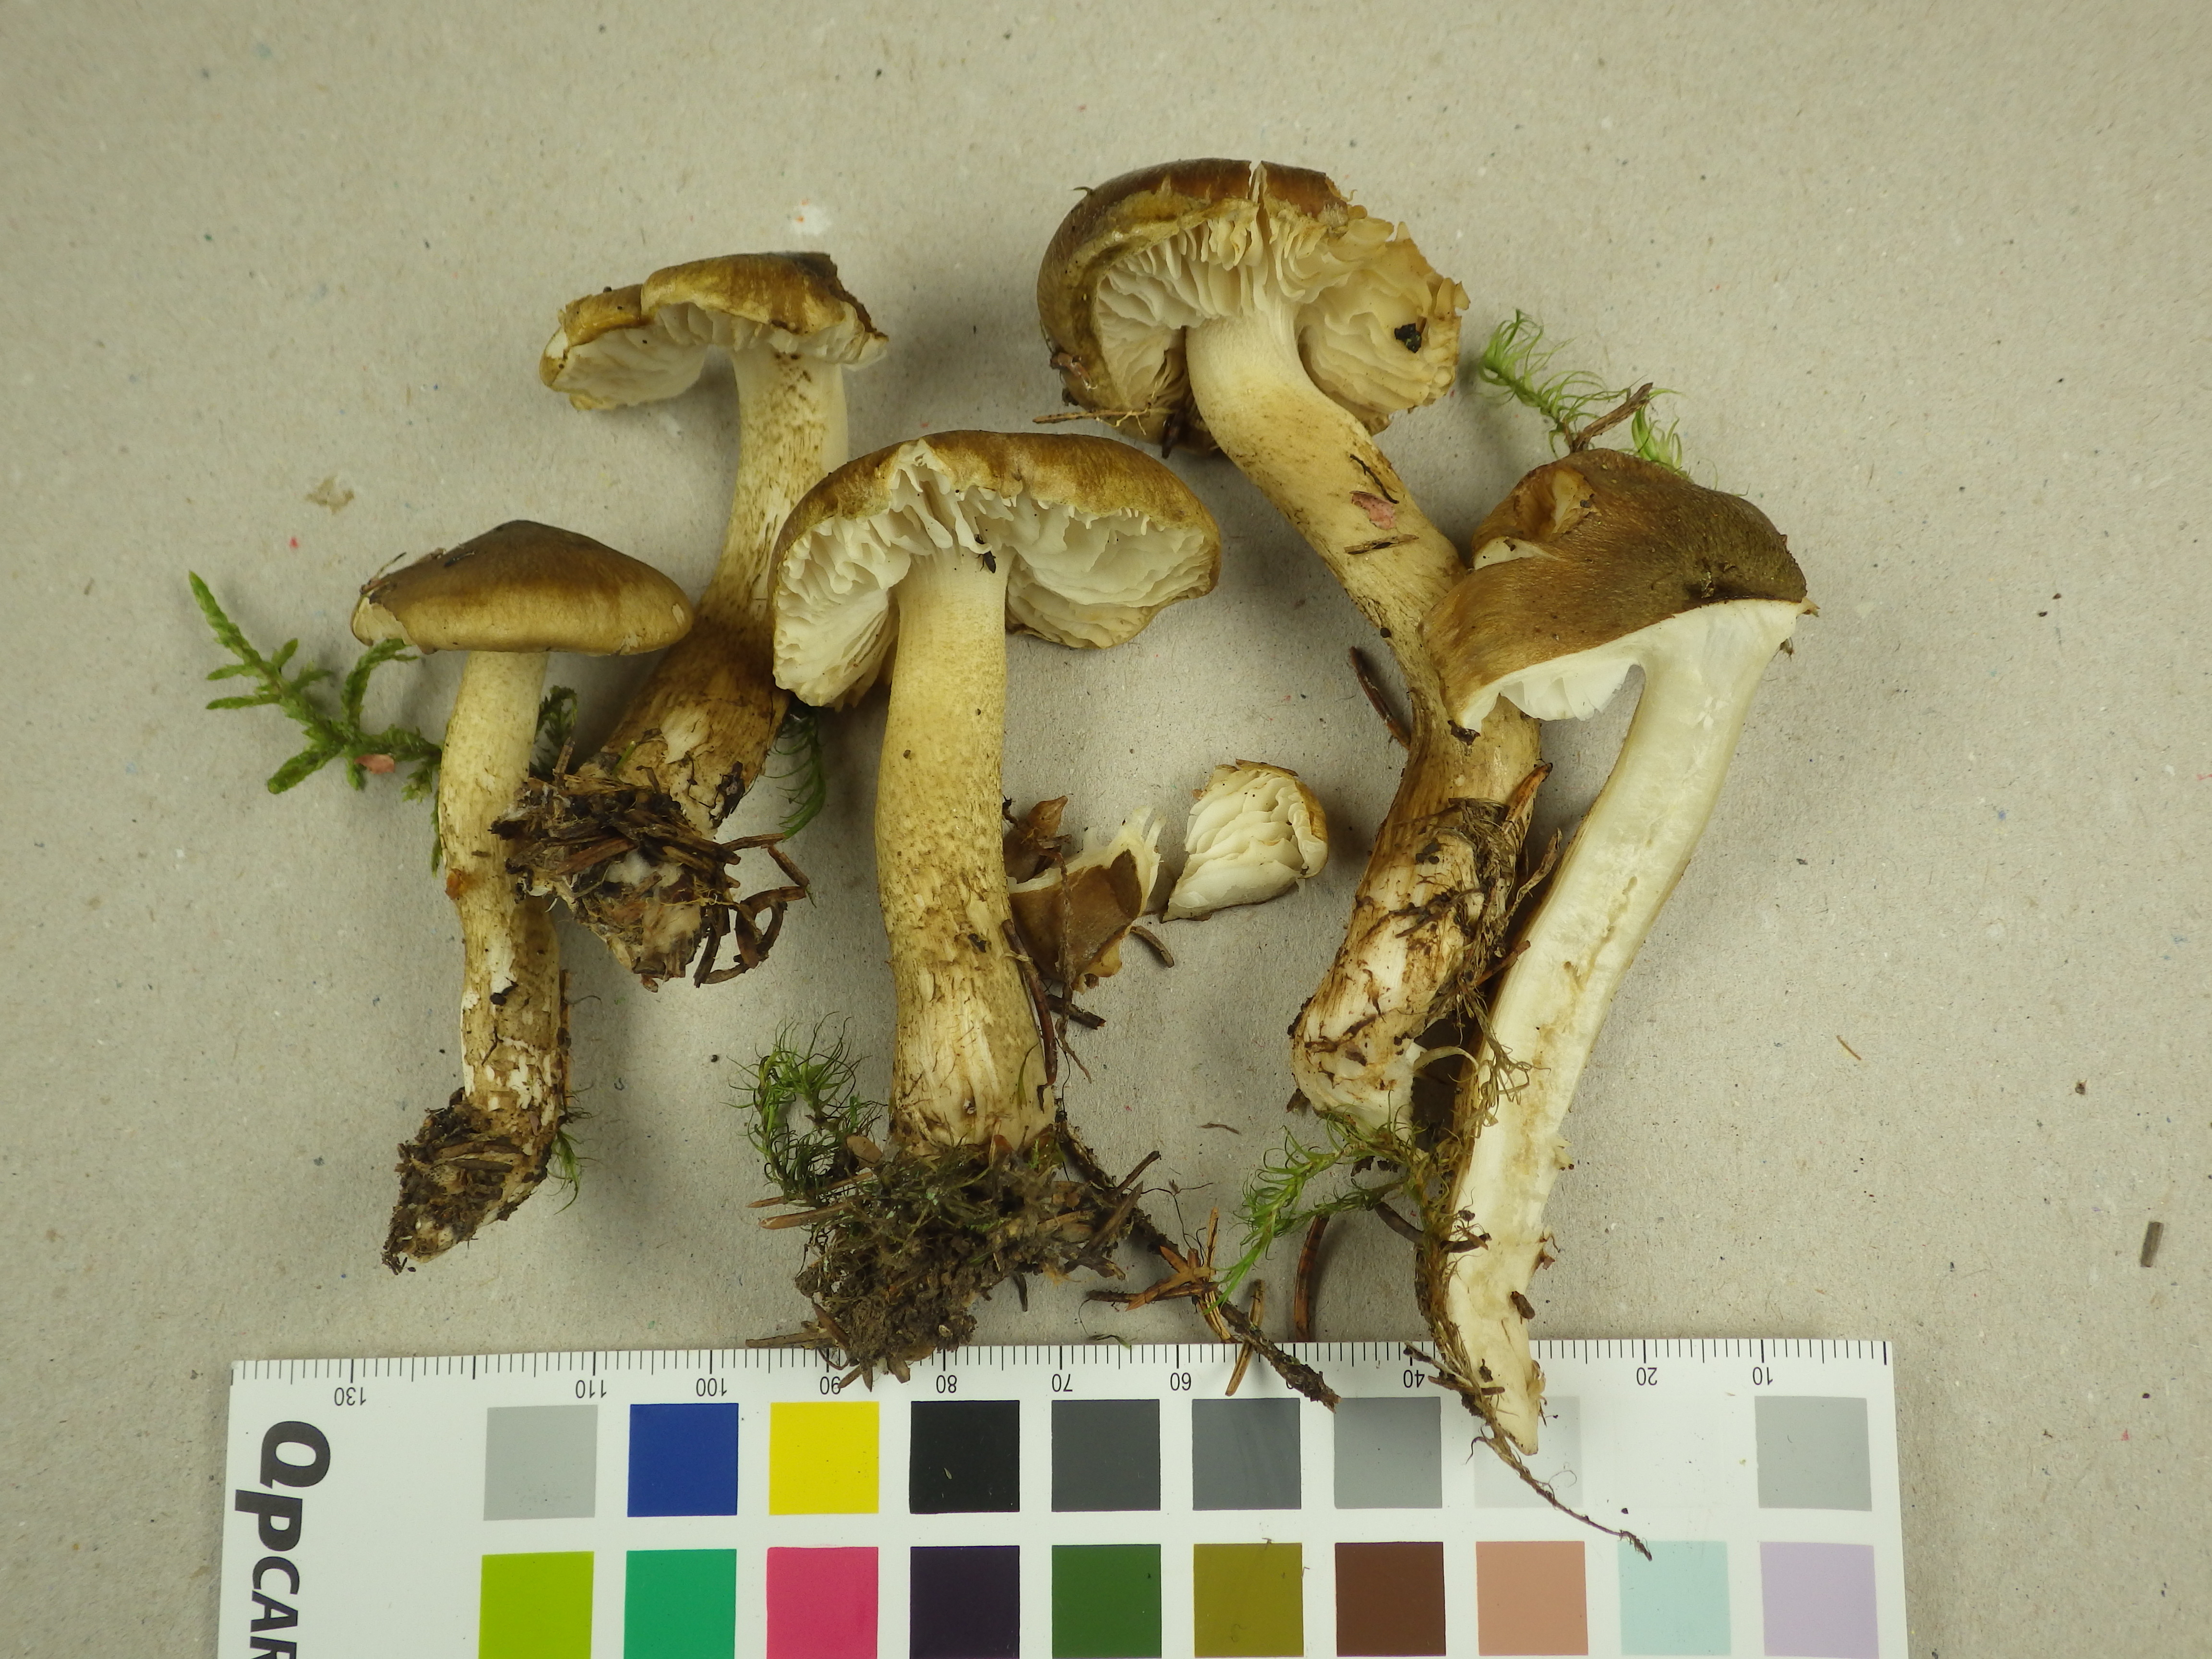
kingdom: Fungi
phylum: Basidiomycota
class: Agaricomycetes
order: Agaricales
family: Tricholomataceae
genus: Tricholoma
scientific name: Tricholoma fucatum
